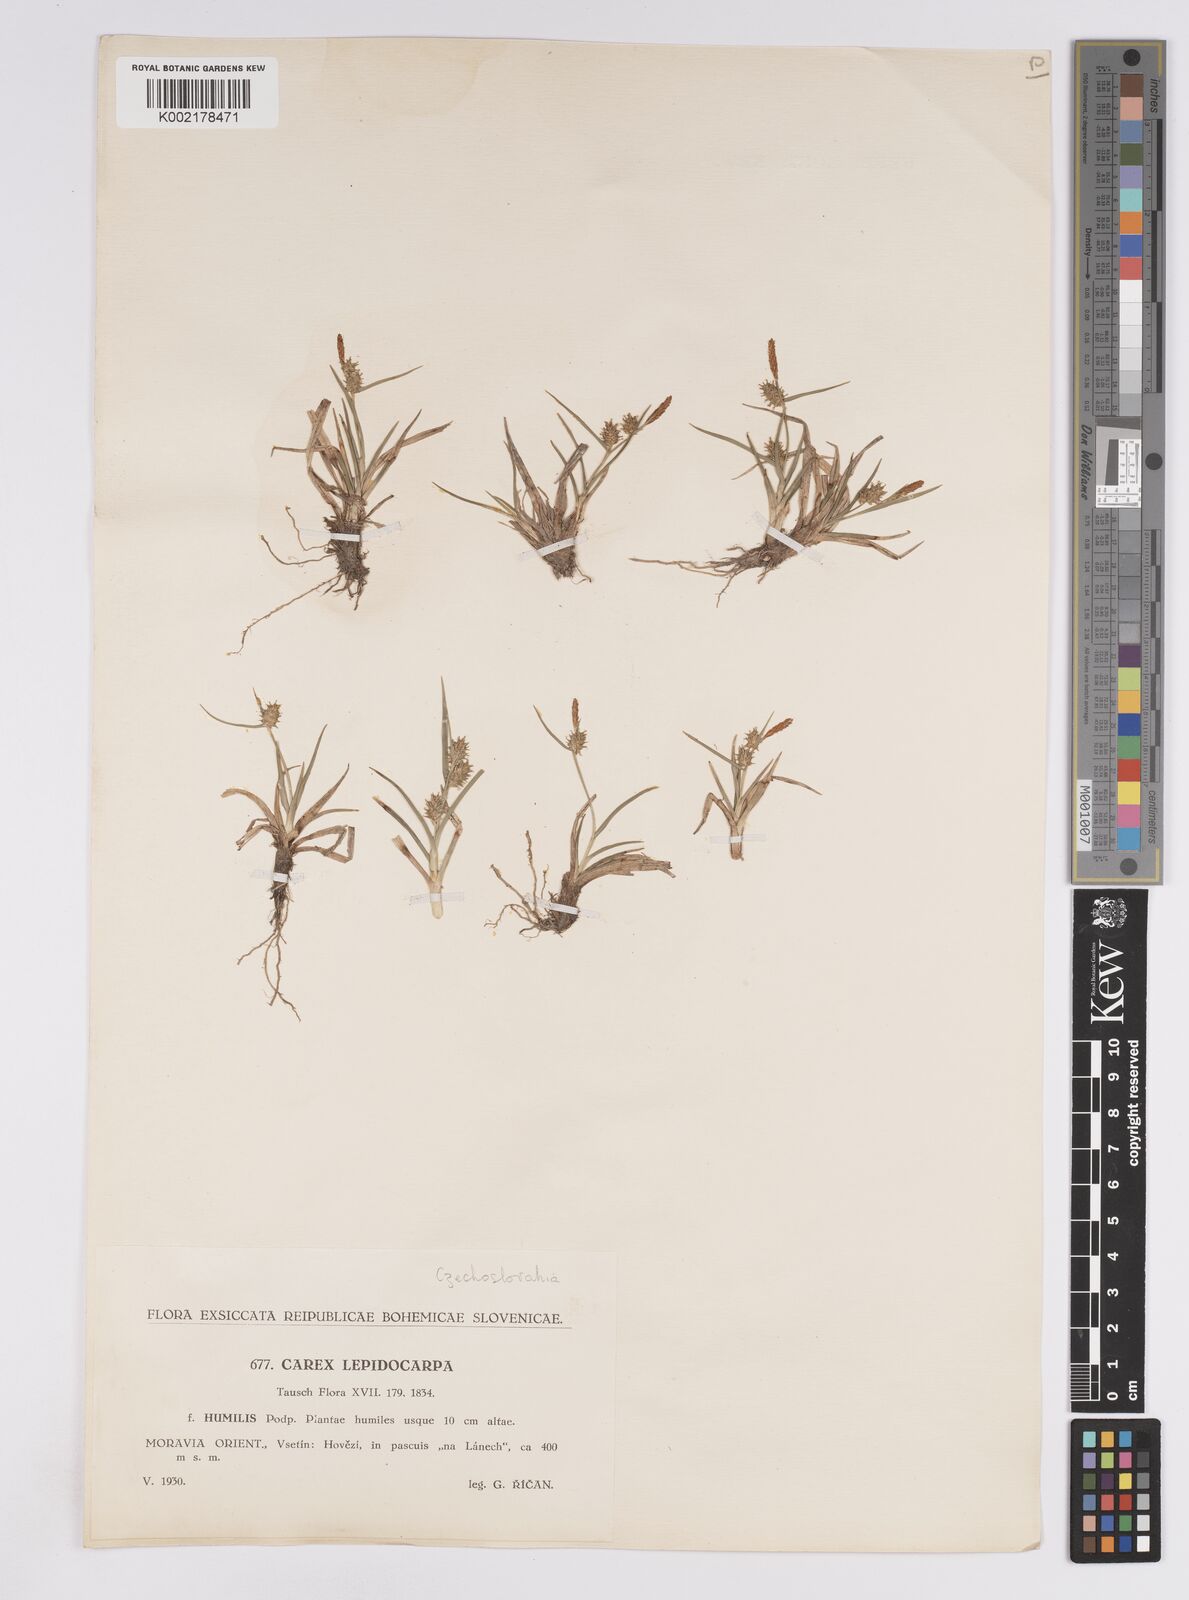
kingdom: Plantae
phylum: Tracheophyta
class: Liliopsida
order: Poales
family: Cyperaceae
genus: Carex
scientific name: Carex demissa
